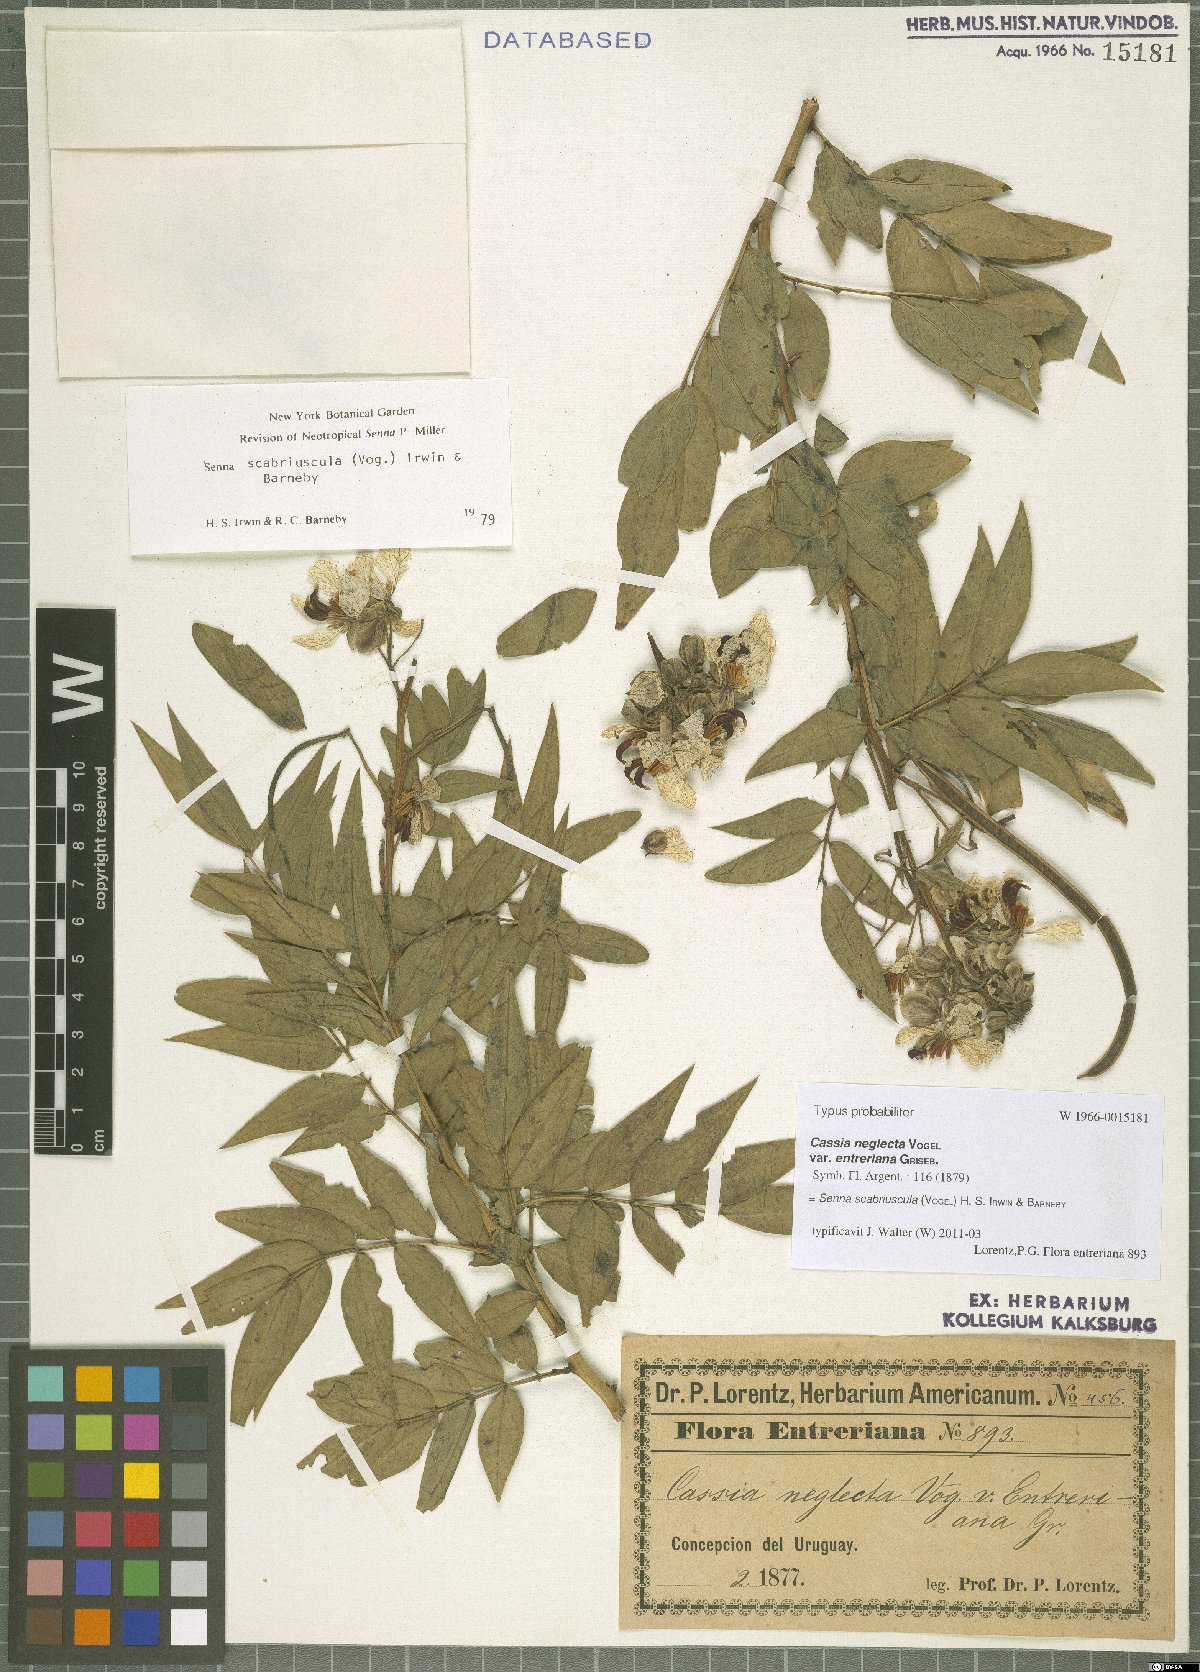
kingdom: Plantae
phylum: Tracheophyta
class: Magnoliopsida
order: Fabales
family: Fabaceae
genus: Senna
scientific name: Senna scabriuscula
